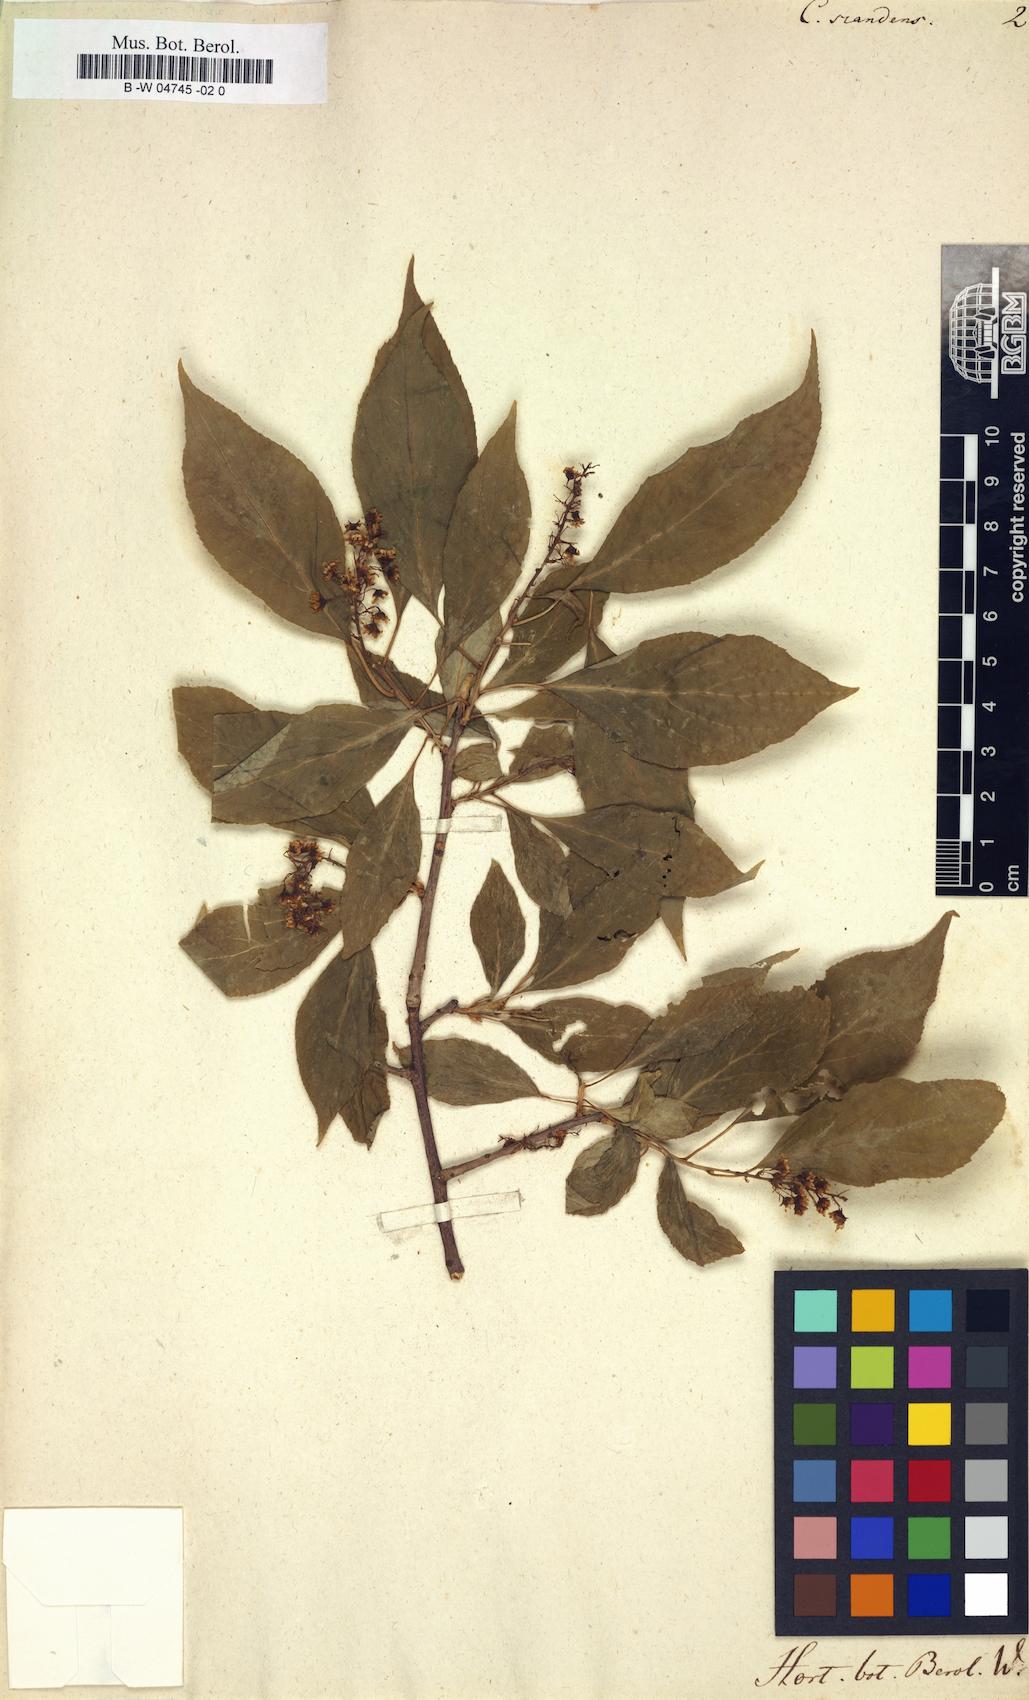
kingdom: Plantae
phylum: Tracheophyta
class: Magnoliopsida
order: Celastrales
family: Celastraceae
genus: Celastrus
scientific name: Celastrus scandens
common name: American bittersweet
